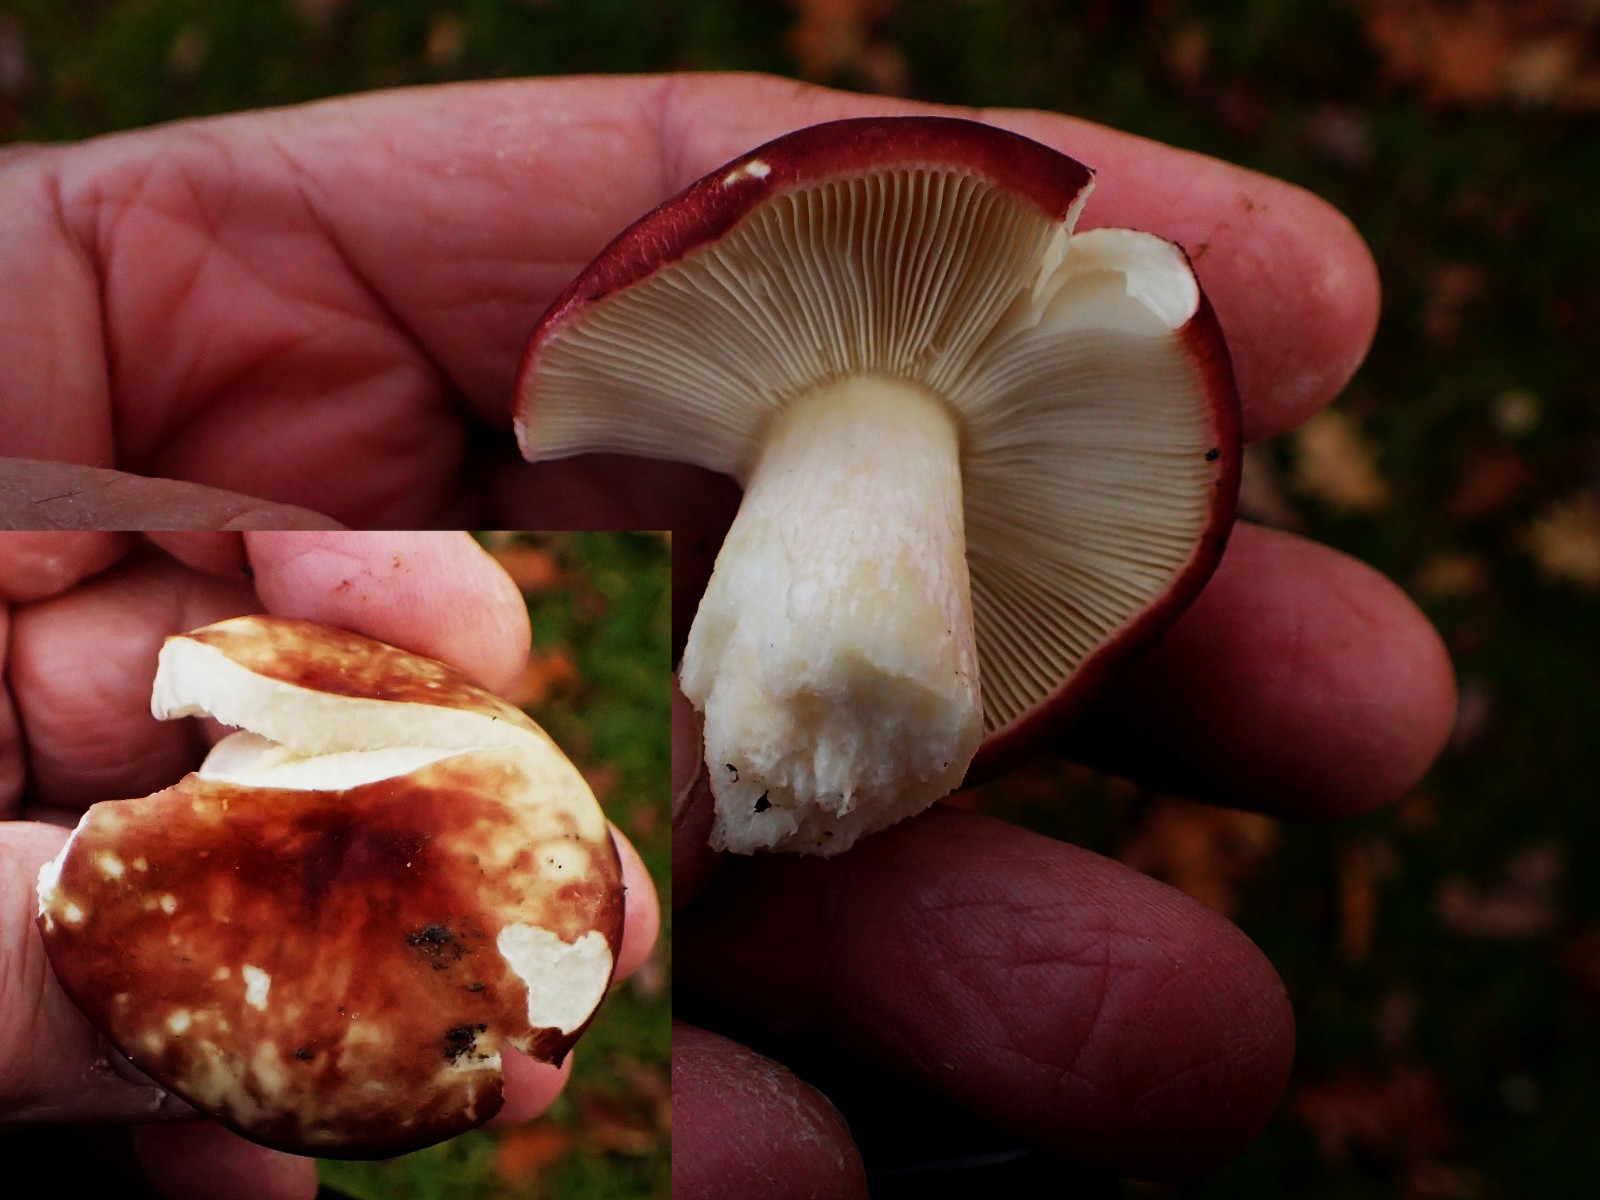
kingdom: Fungi
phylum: Basidiomycota
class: Agaricomycetes
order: Russulales
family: Russulaceae
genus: Russula
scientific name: Russula integra
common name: mandel-skørhat
